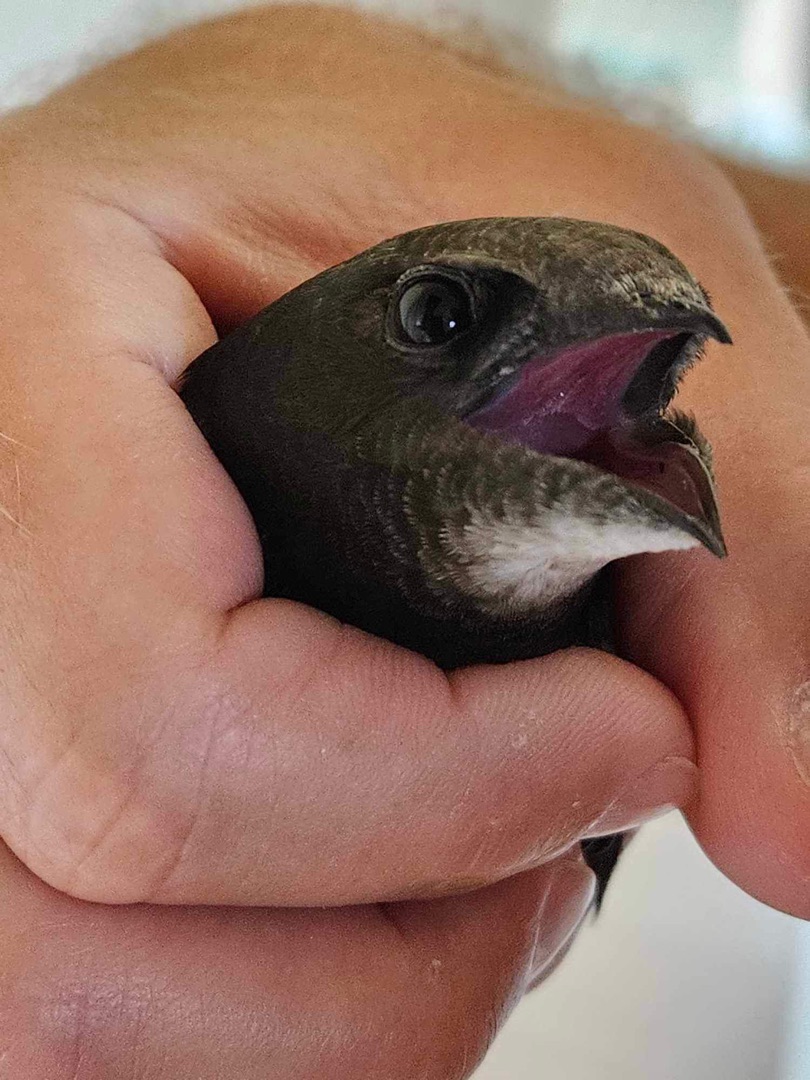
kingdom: Animalia
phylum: Chordata
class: Aves
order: Apodiformes
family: Apodidae
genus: Apus
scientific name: Apus apus
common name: Mursejler
